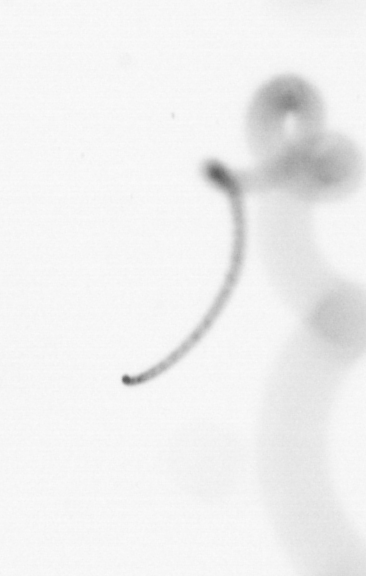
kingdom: Chromista
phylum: Ochrophyta
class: Bacillariophyceae
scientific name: Bacillariophyceae
